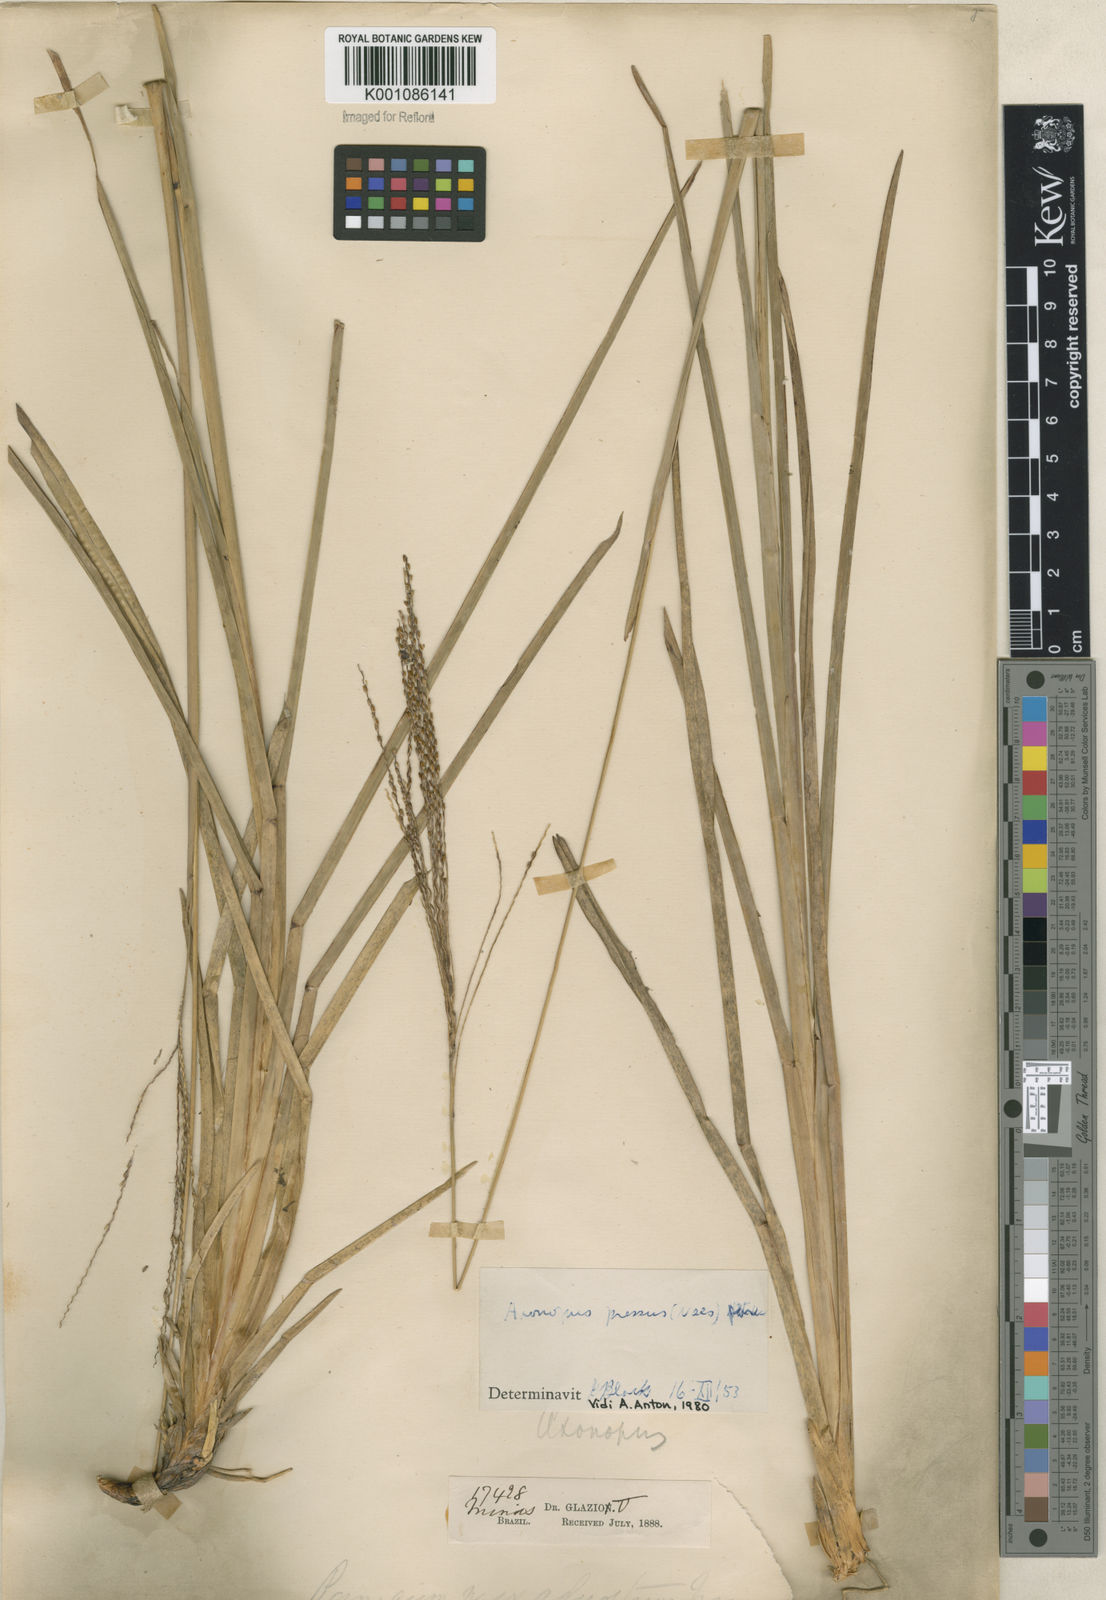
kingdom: Plantae
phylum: Tracheophyta
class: Liliopsida
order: Poales
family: Poaceae
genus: Axonopus
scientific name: Axonopus pressus
